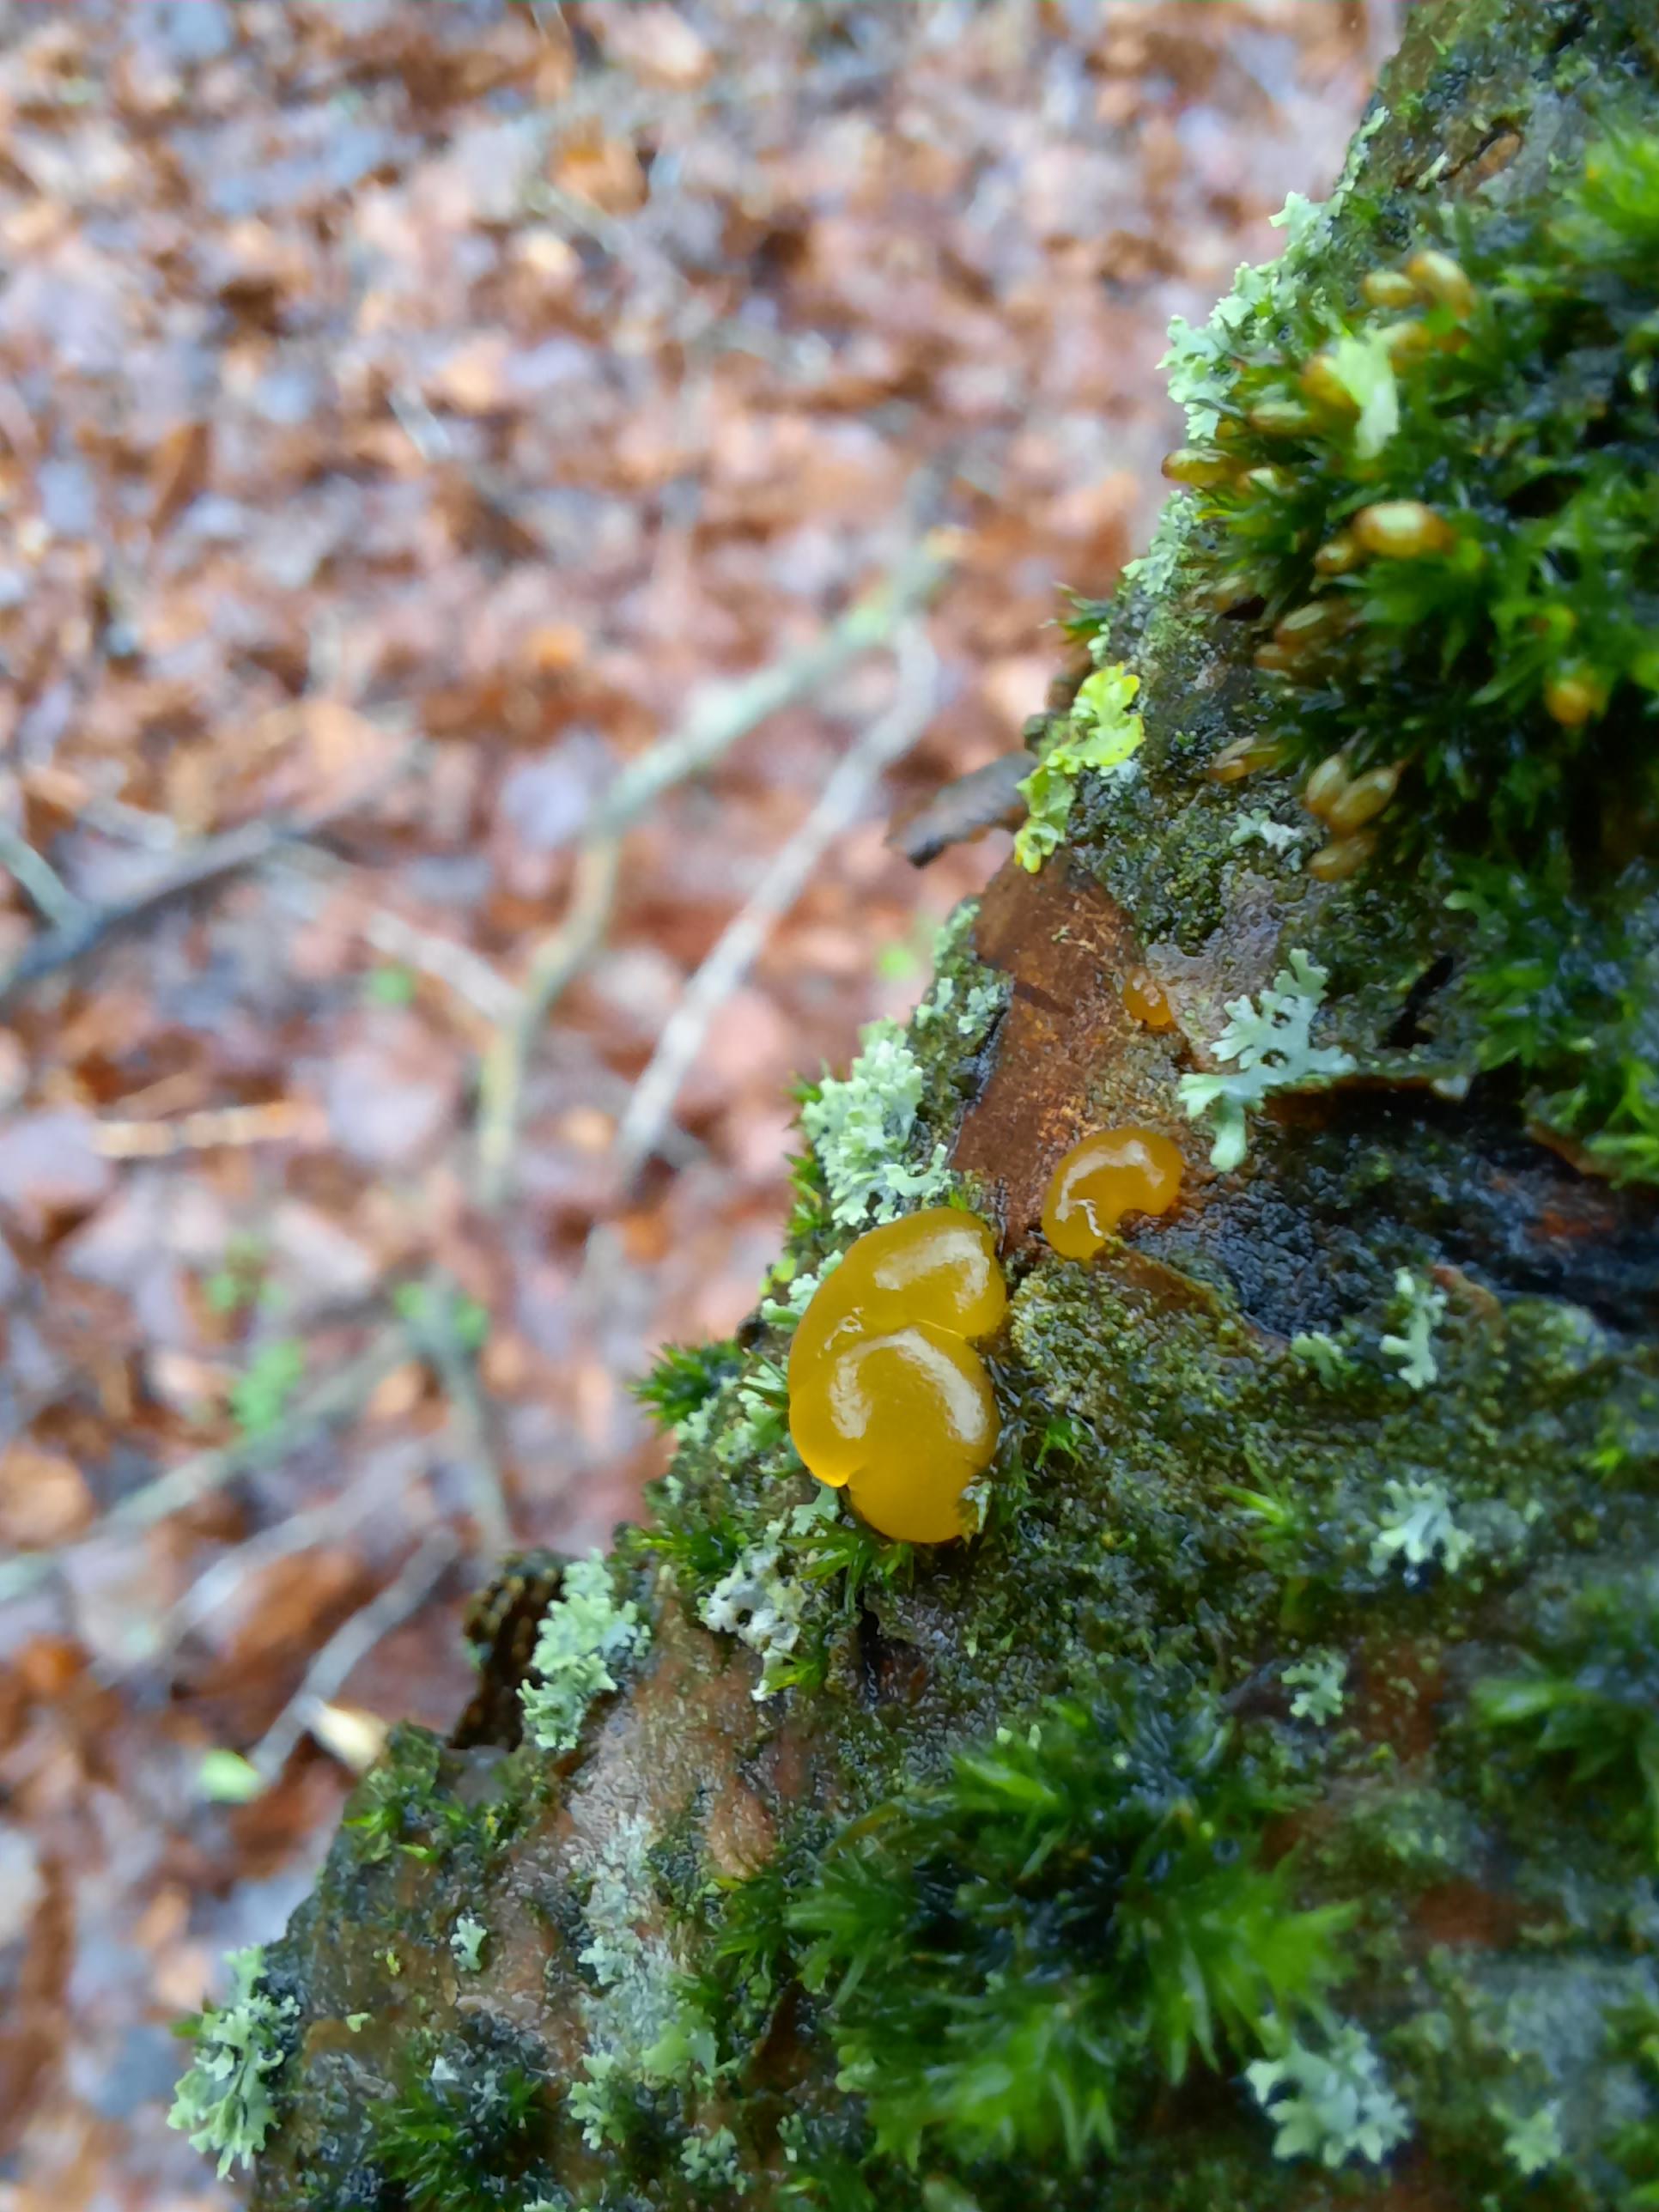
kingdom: Fungi
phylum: Basidiomycota
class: Dacrymycetes
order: Dacrymycetales
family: Dacrymycetaceae
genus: Dacrymyces
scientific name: Dacrymyces lacrymalis
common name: rynket tåresvamp
